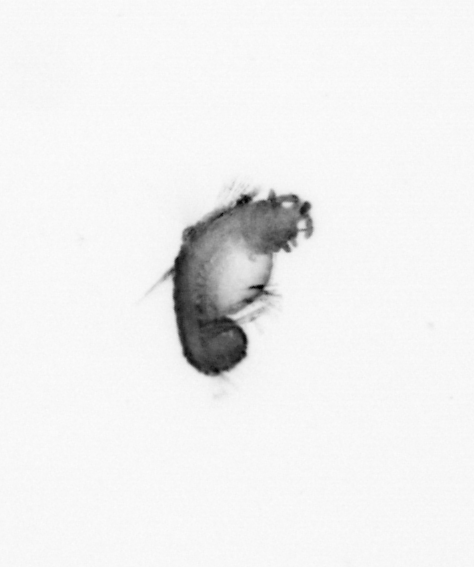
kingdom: Animalia
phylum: Annelida
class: Polychaeta
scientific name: Polychaeta
